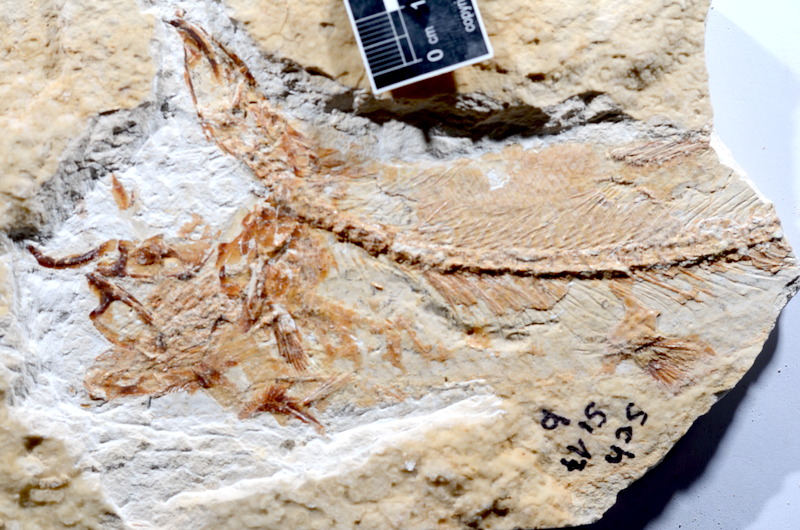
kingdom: Animalia
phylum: Chordata
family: Ascalaboidae
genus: Tharsis
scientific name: Tharsis dubius
